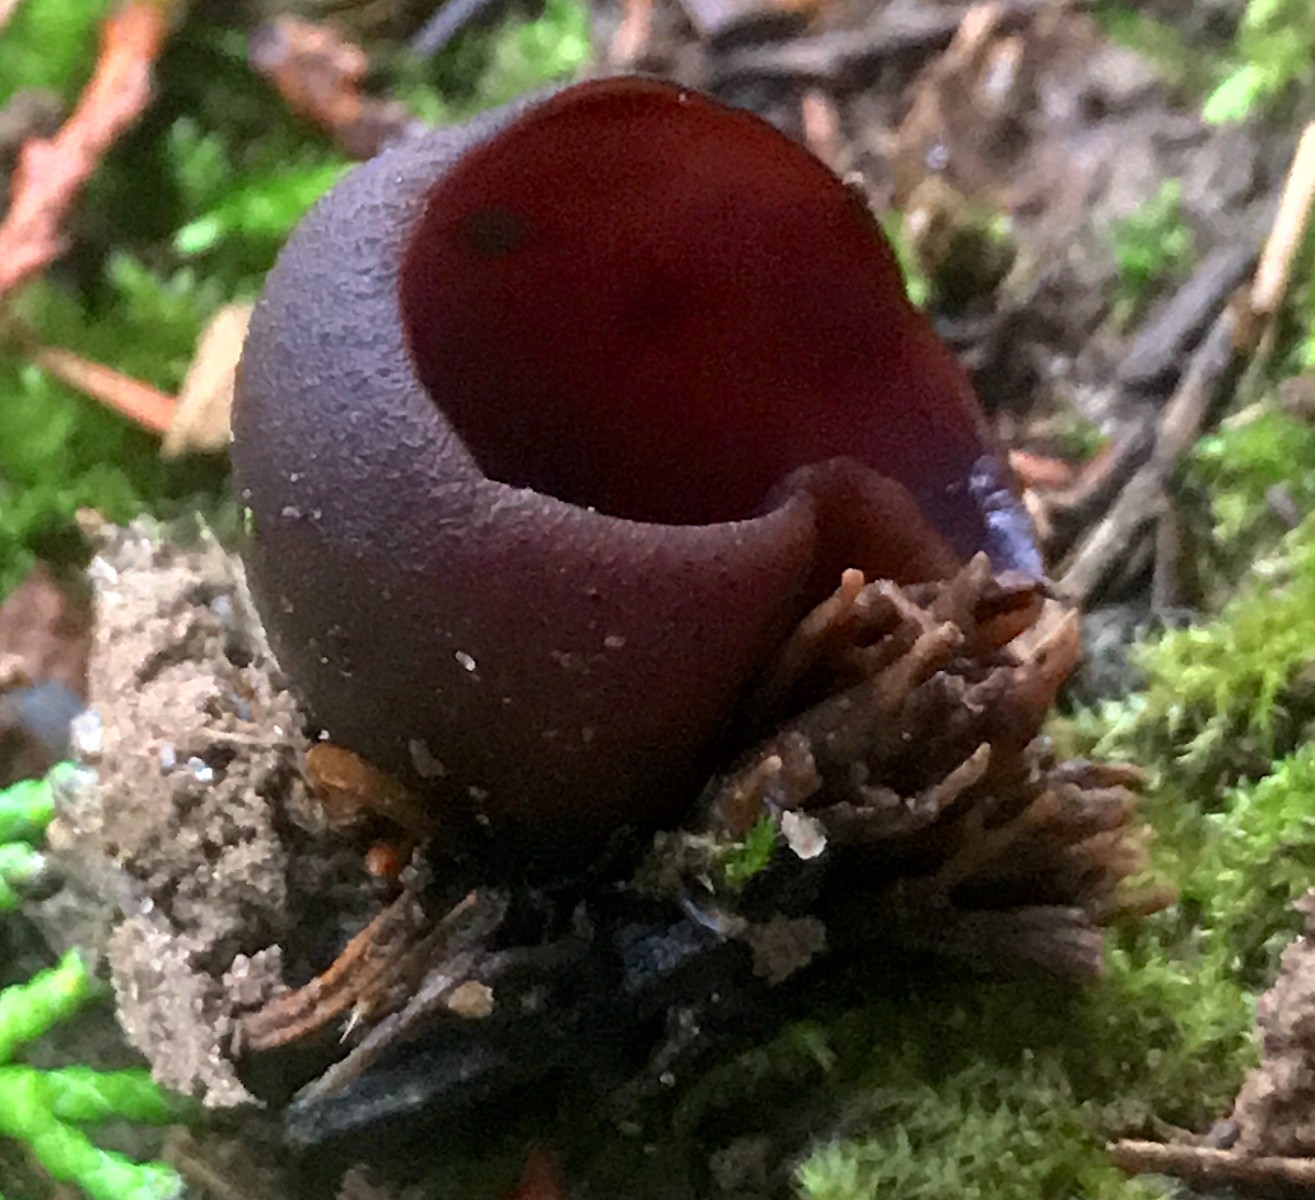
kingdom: Fungi
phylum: Ascomycota
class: Pezizomycetes
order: Pezizales
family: Pezizaceae
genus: Peziza
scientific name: Peziza
